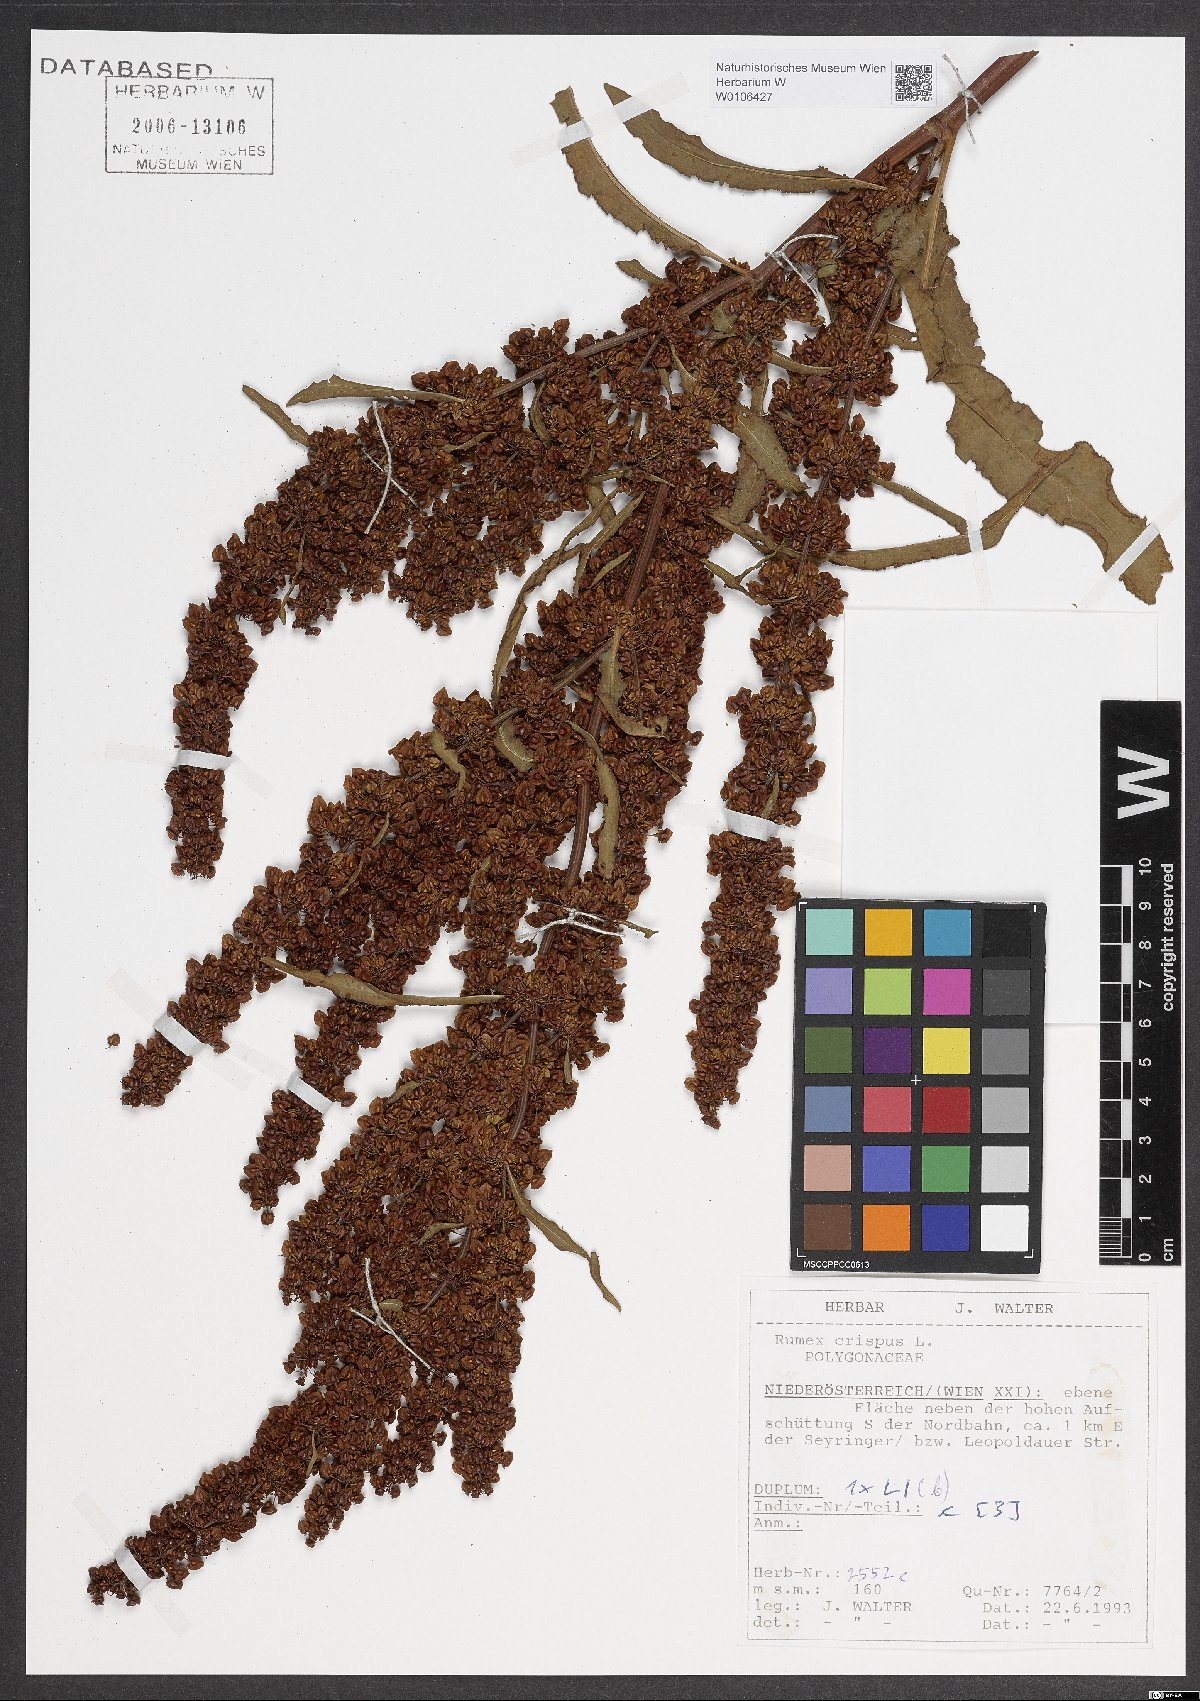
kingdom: Plantae
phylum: Tracheophyta
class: Magnoliopsida
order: Caryophyllales
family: Polygonaceae
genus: Rumex
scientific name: Rumex crispus
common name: Curled dock
